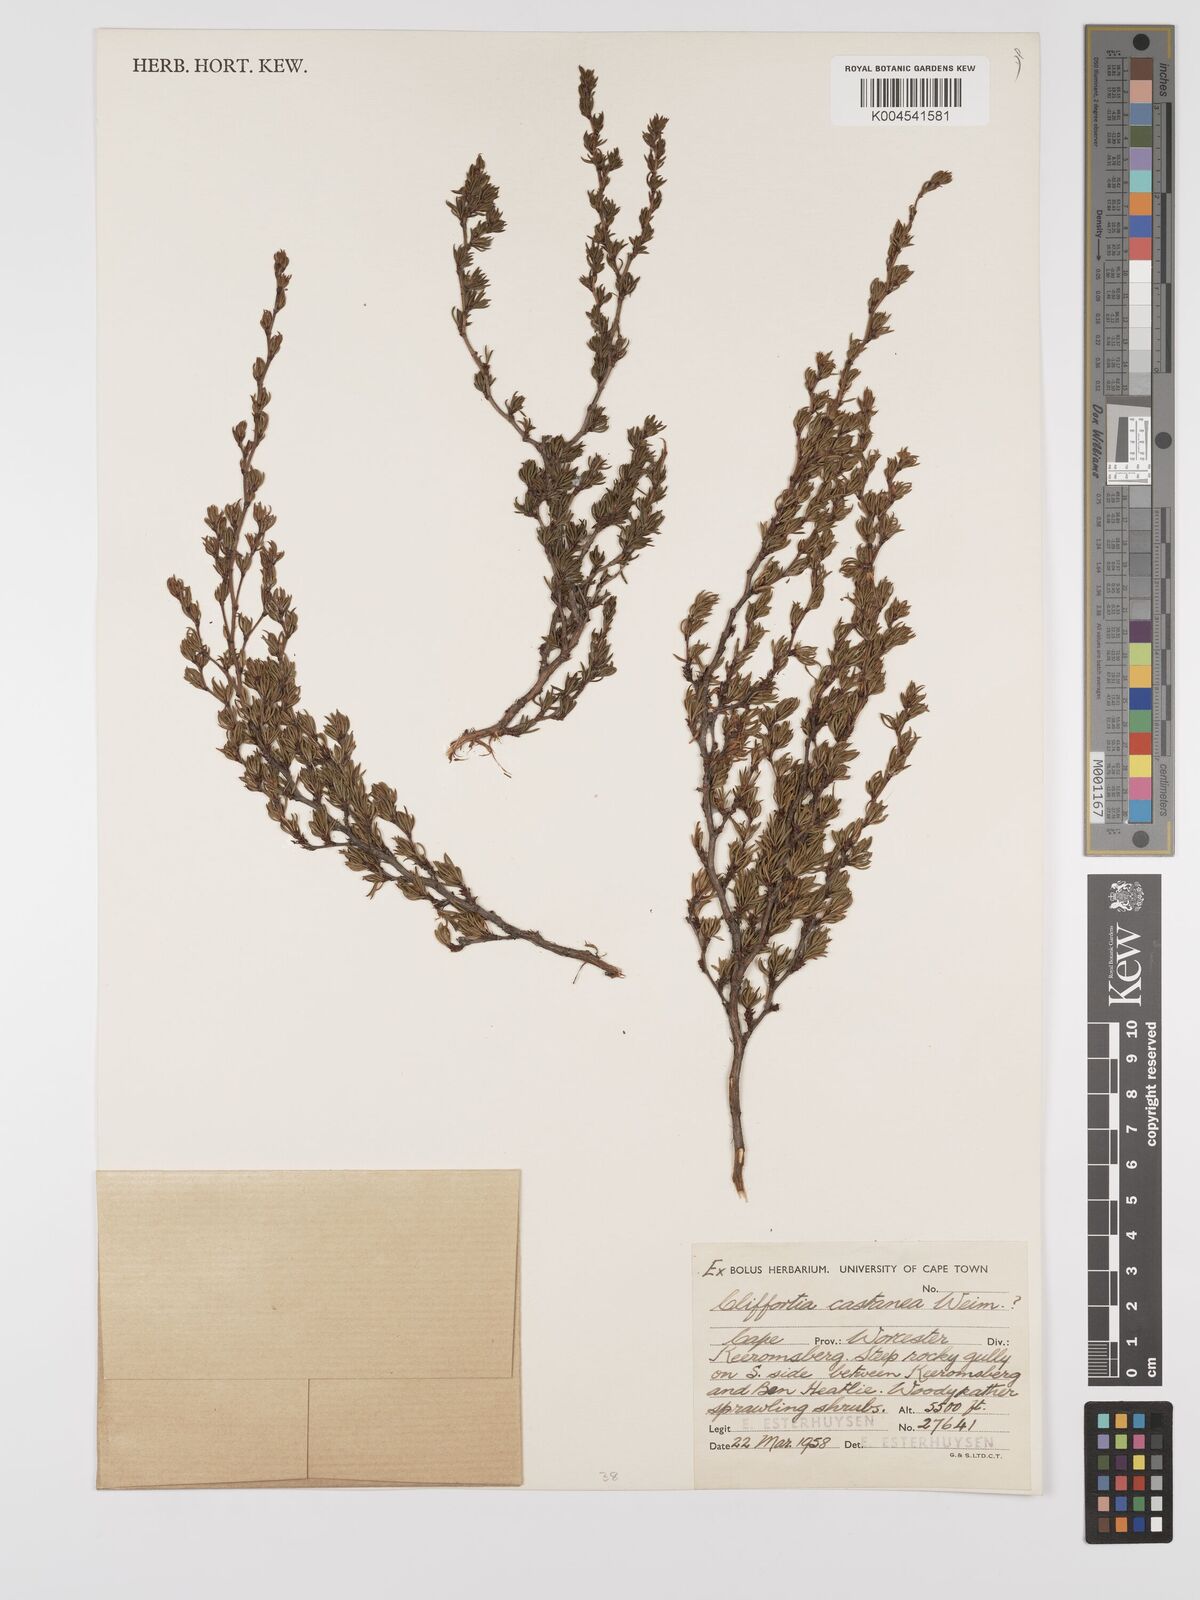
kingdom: Plantae
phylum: Tracheophyta
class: Magnoliopsida
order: Rosales
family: Rosaceae
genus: Cliffortia
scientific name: Cliffortia castanea
